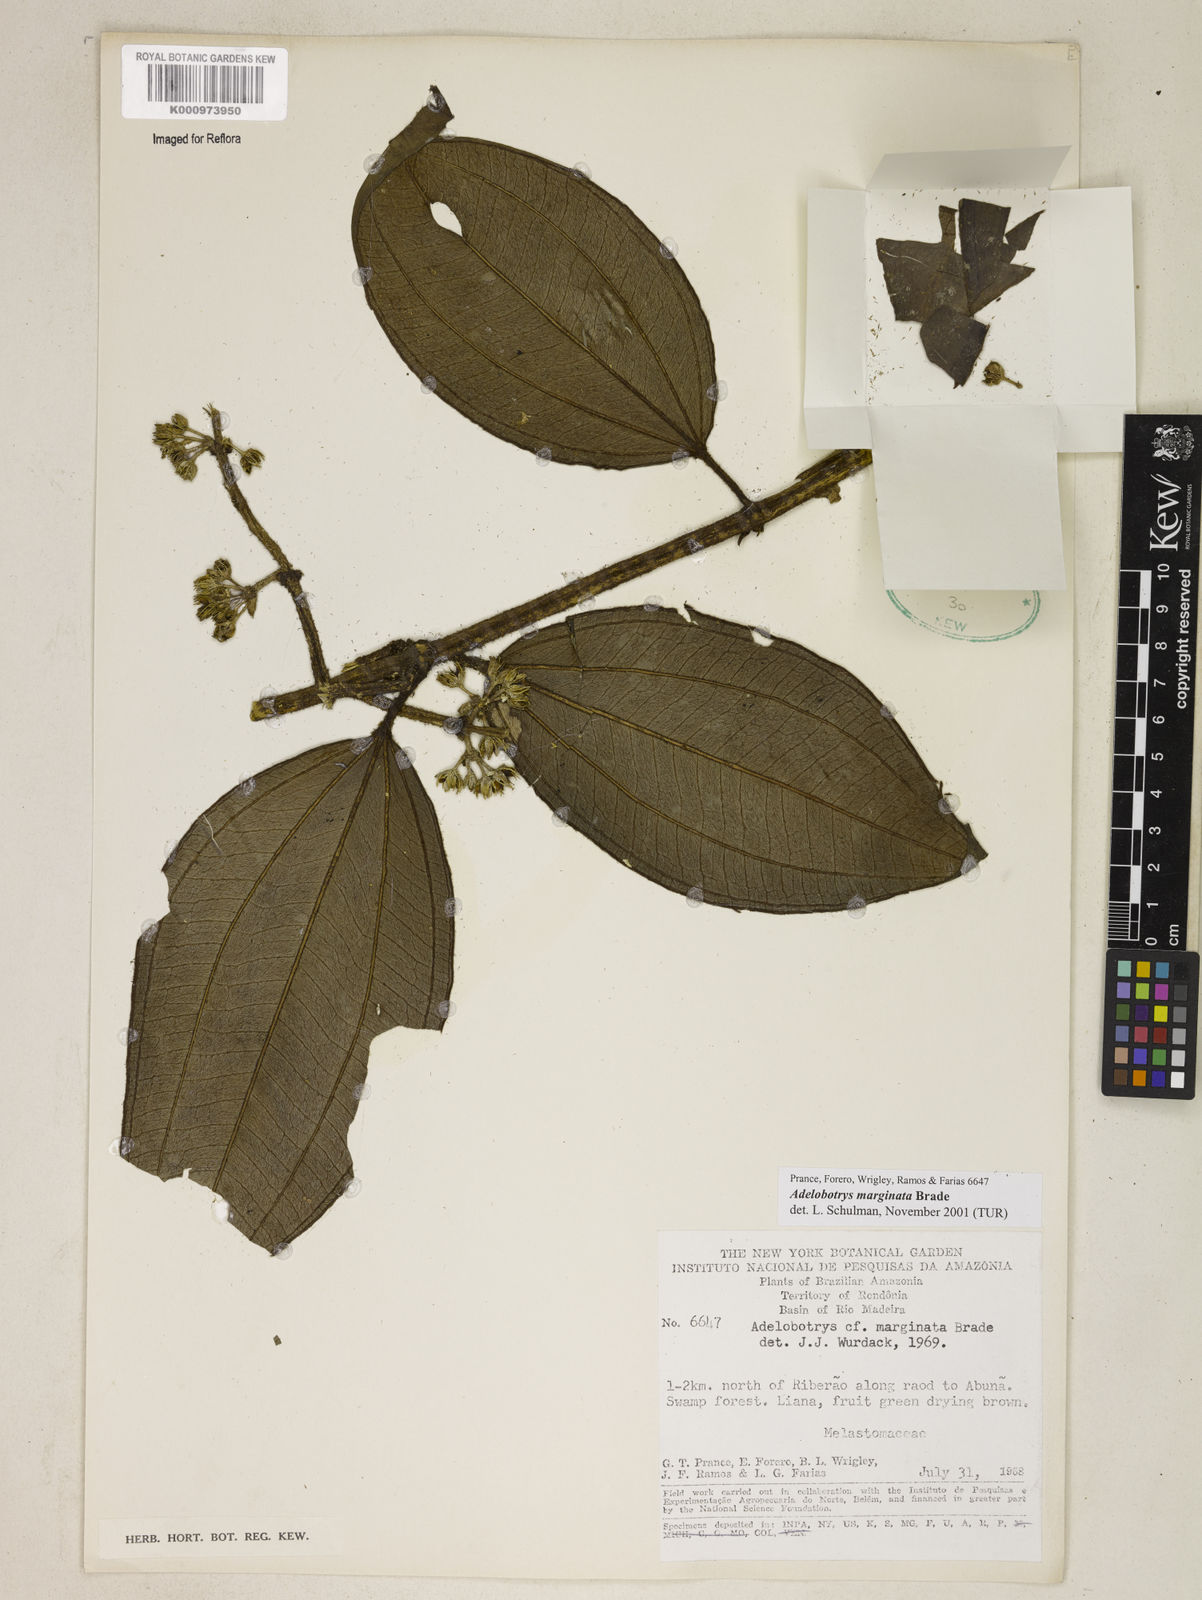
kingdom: Plantae
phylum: Tracheophyta
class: Magnoliopsida
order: Myrtales
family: Melastomataceae
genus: Adelobotrys
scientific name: Adelobotrys marginatus
